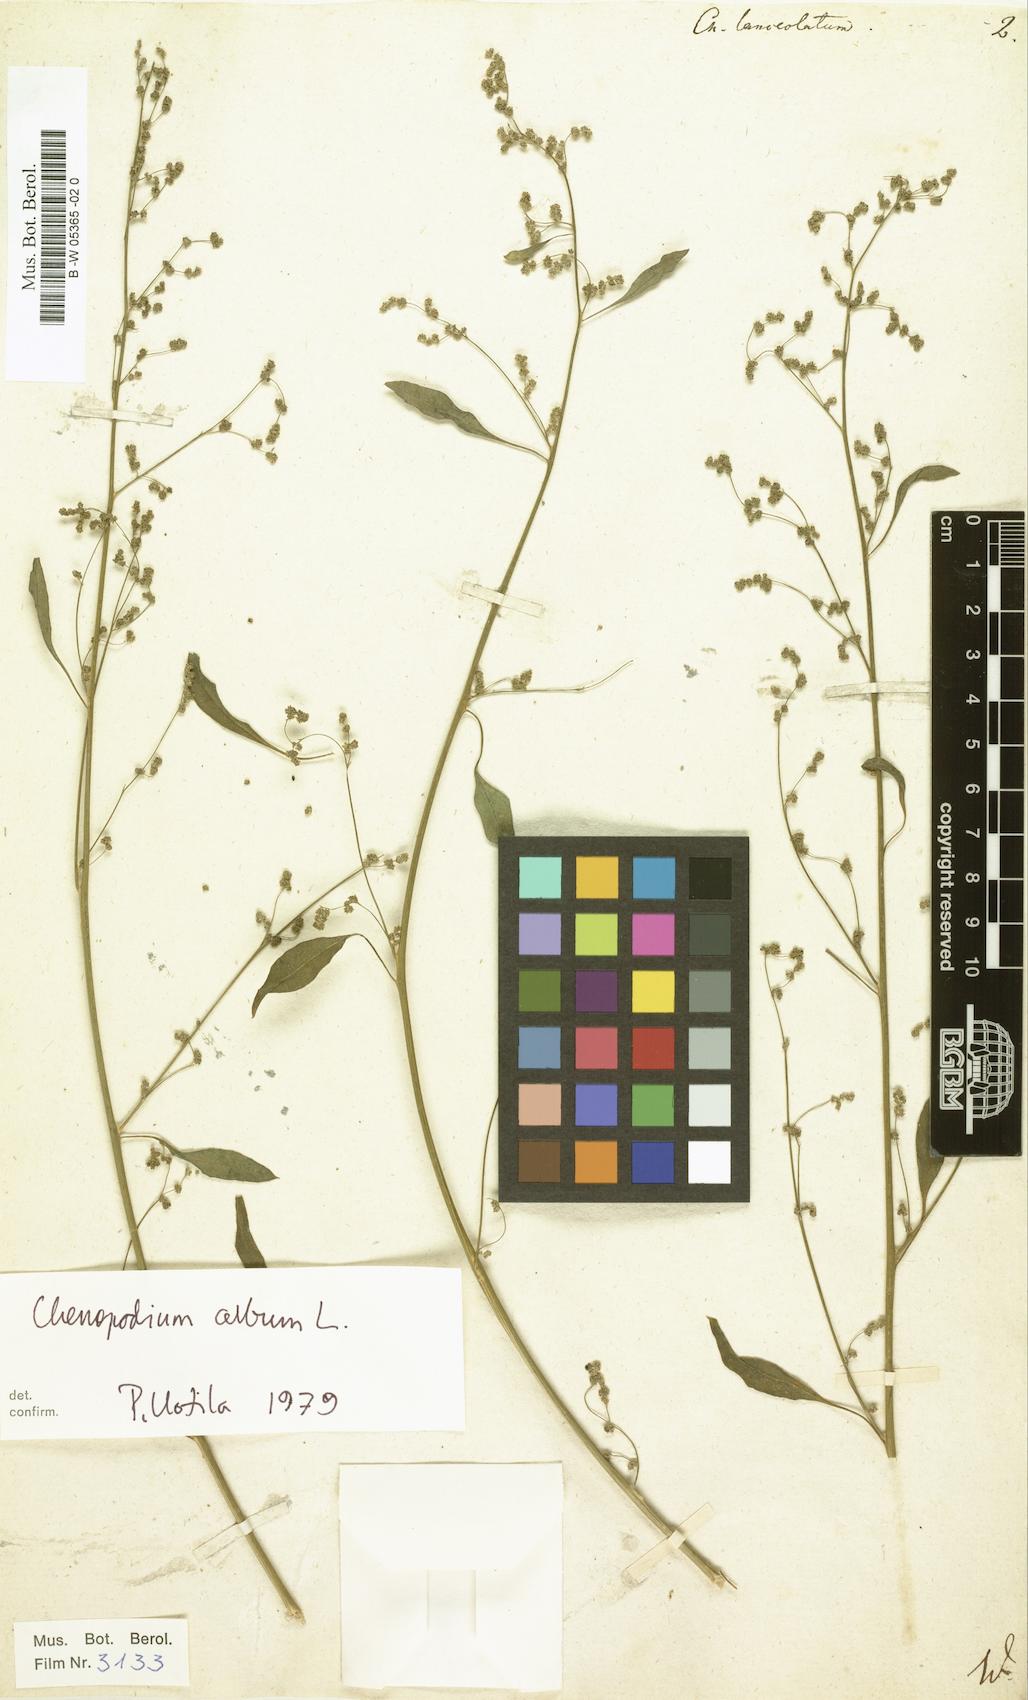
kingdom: Plantae
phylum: Tracheophyta
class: Magnoliopsida
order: Caryophyllales
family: Amaranthaceae
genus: Chenopodium
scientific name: Chenopodium album
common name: Fat-hen
